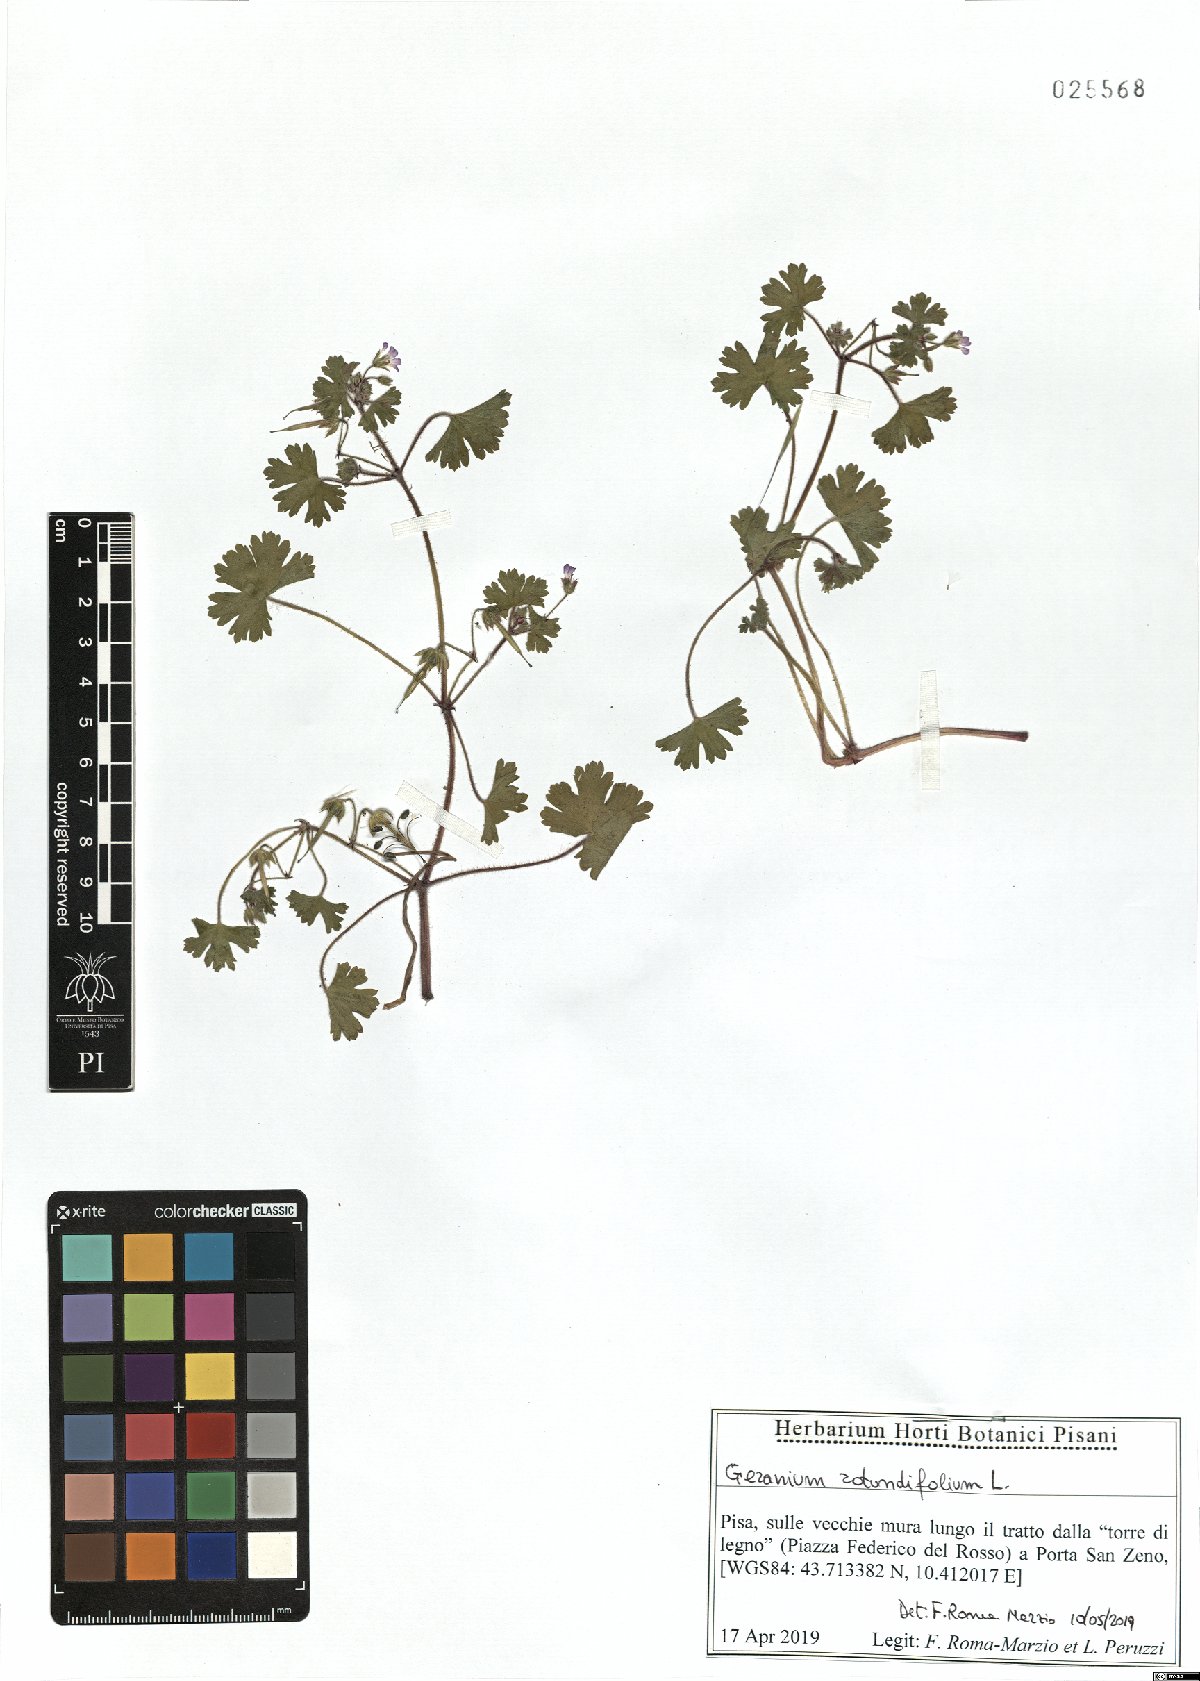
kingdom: Plantae
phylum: Tracheophyta
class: Magnoliopsida
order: Geraniales
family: Geraniaceae
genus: Geranium
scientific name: Geranium rotundifolium
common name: Round-leaved crane's-bill
